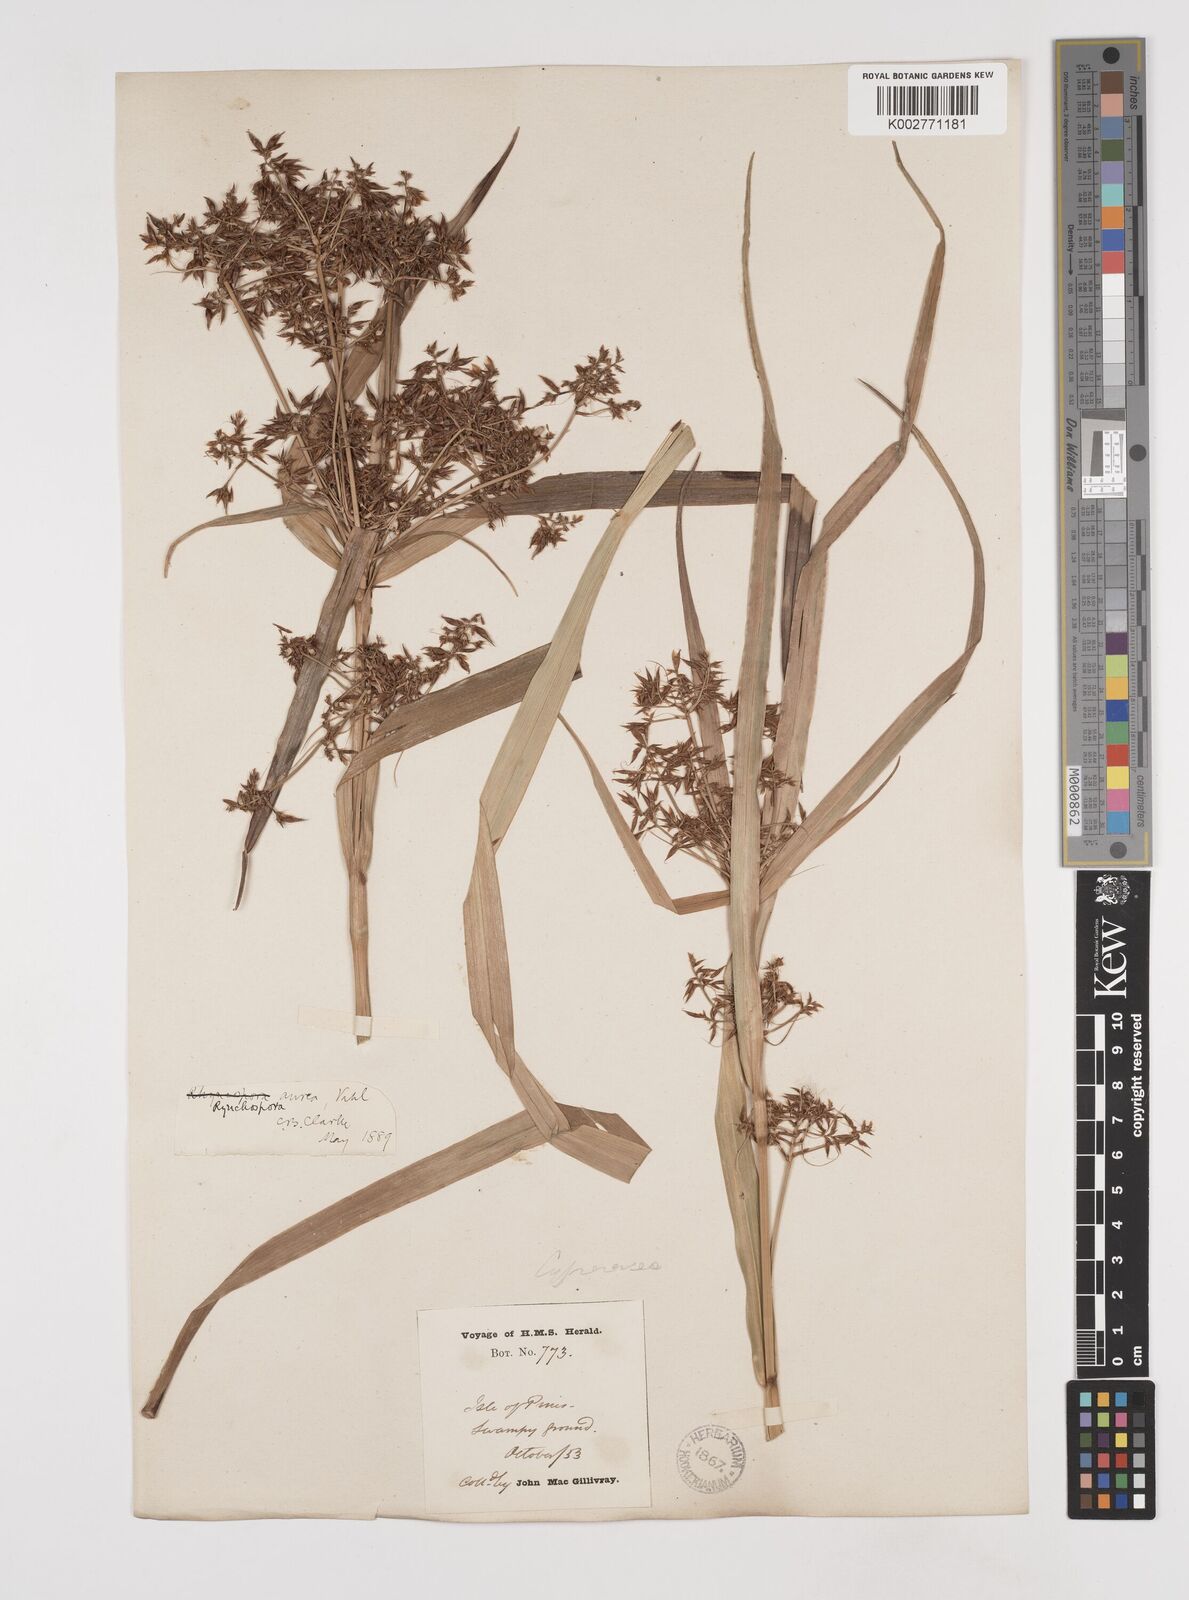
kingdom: Plantae
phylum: Tracheophyta
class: Liliopsida
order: Poales
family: Cyperaceae
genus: Rhynchospora
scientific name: Rhynchospora corymbosa
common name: Golden beak sedge
